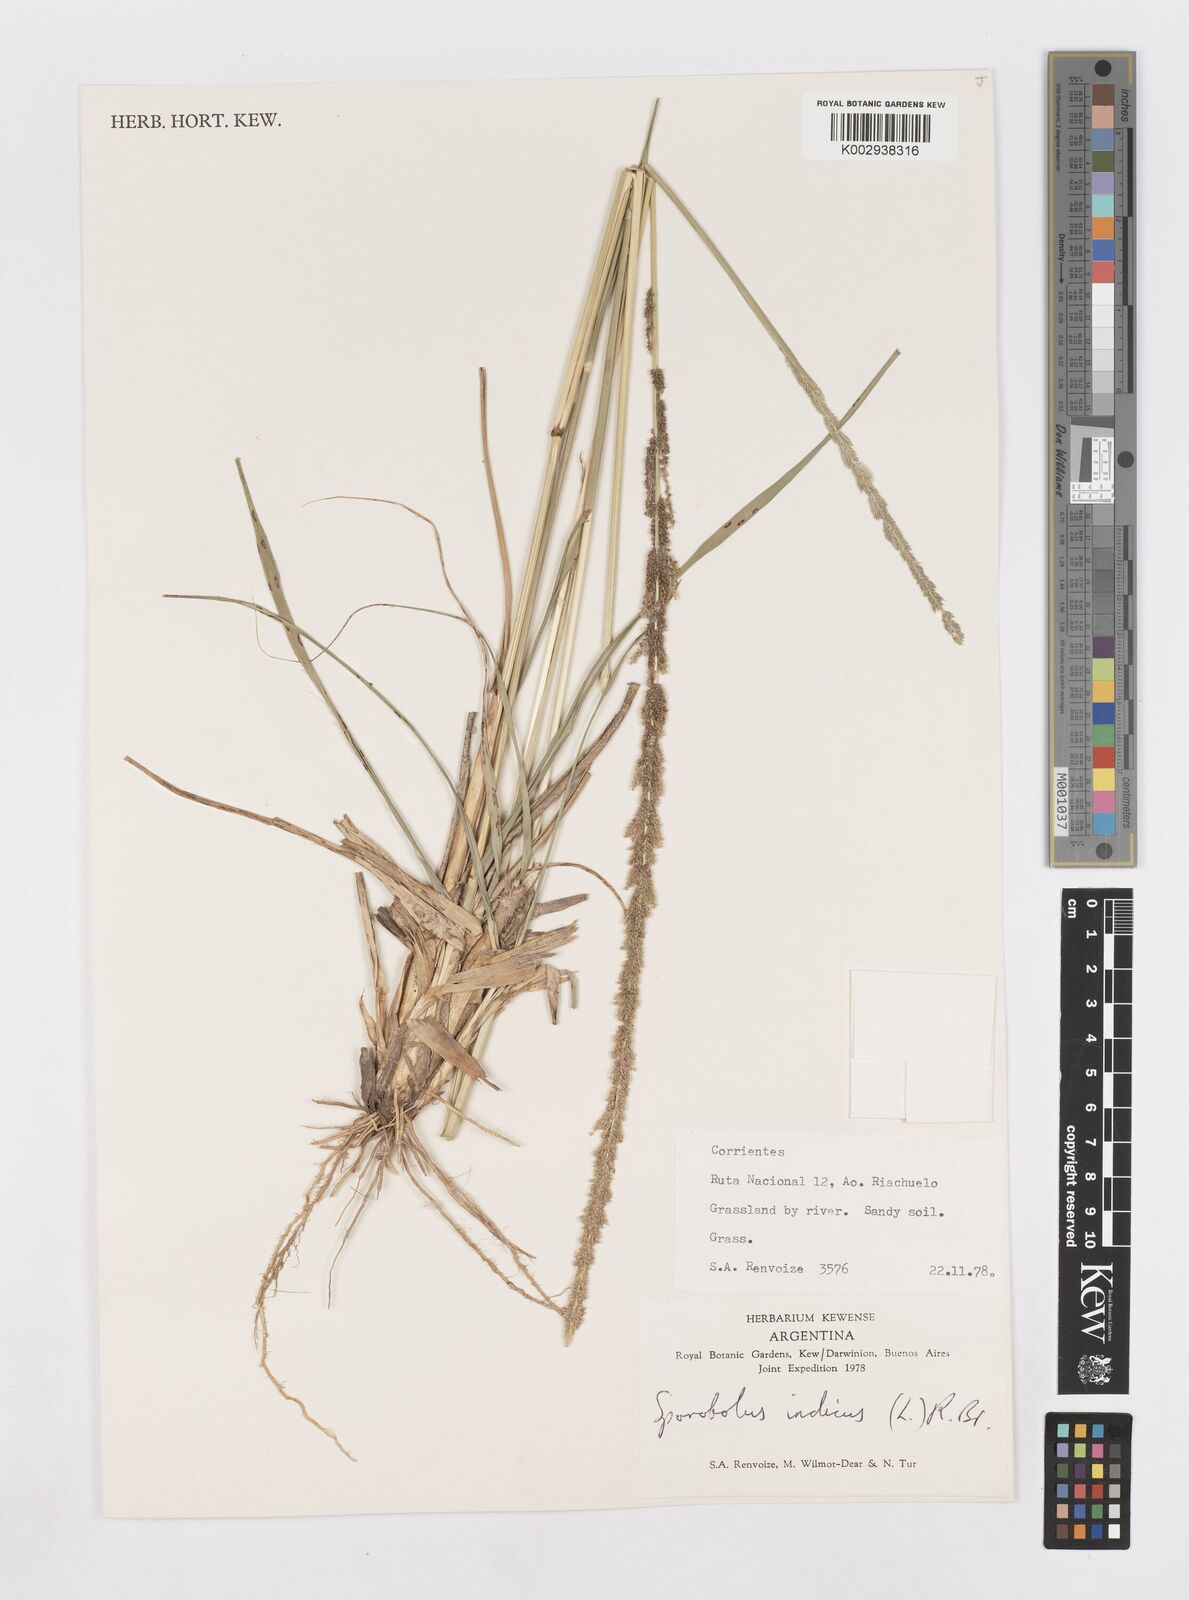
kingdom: Plantae
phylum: Tracheophyta
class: Liliopsida
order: Poales
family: Poaceae
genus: Sporobolus
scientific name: Sporobolus indicus
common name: Smut grass
